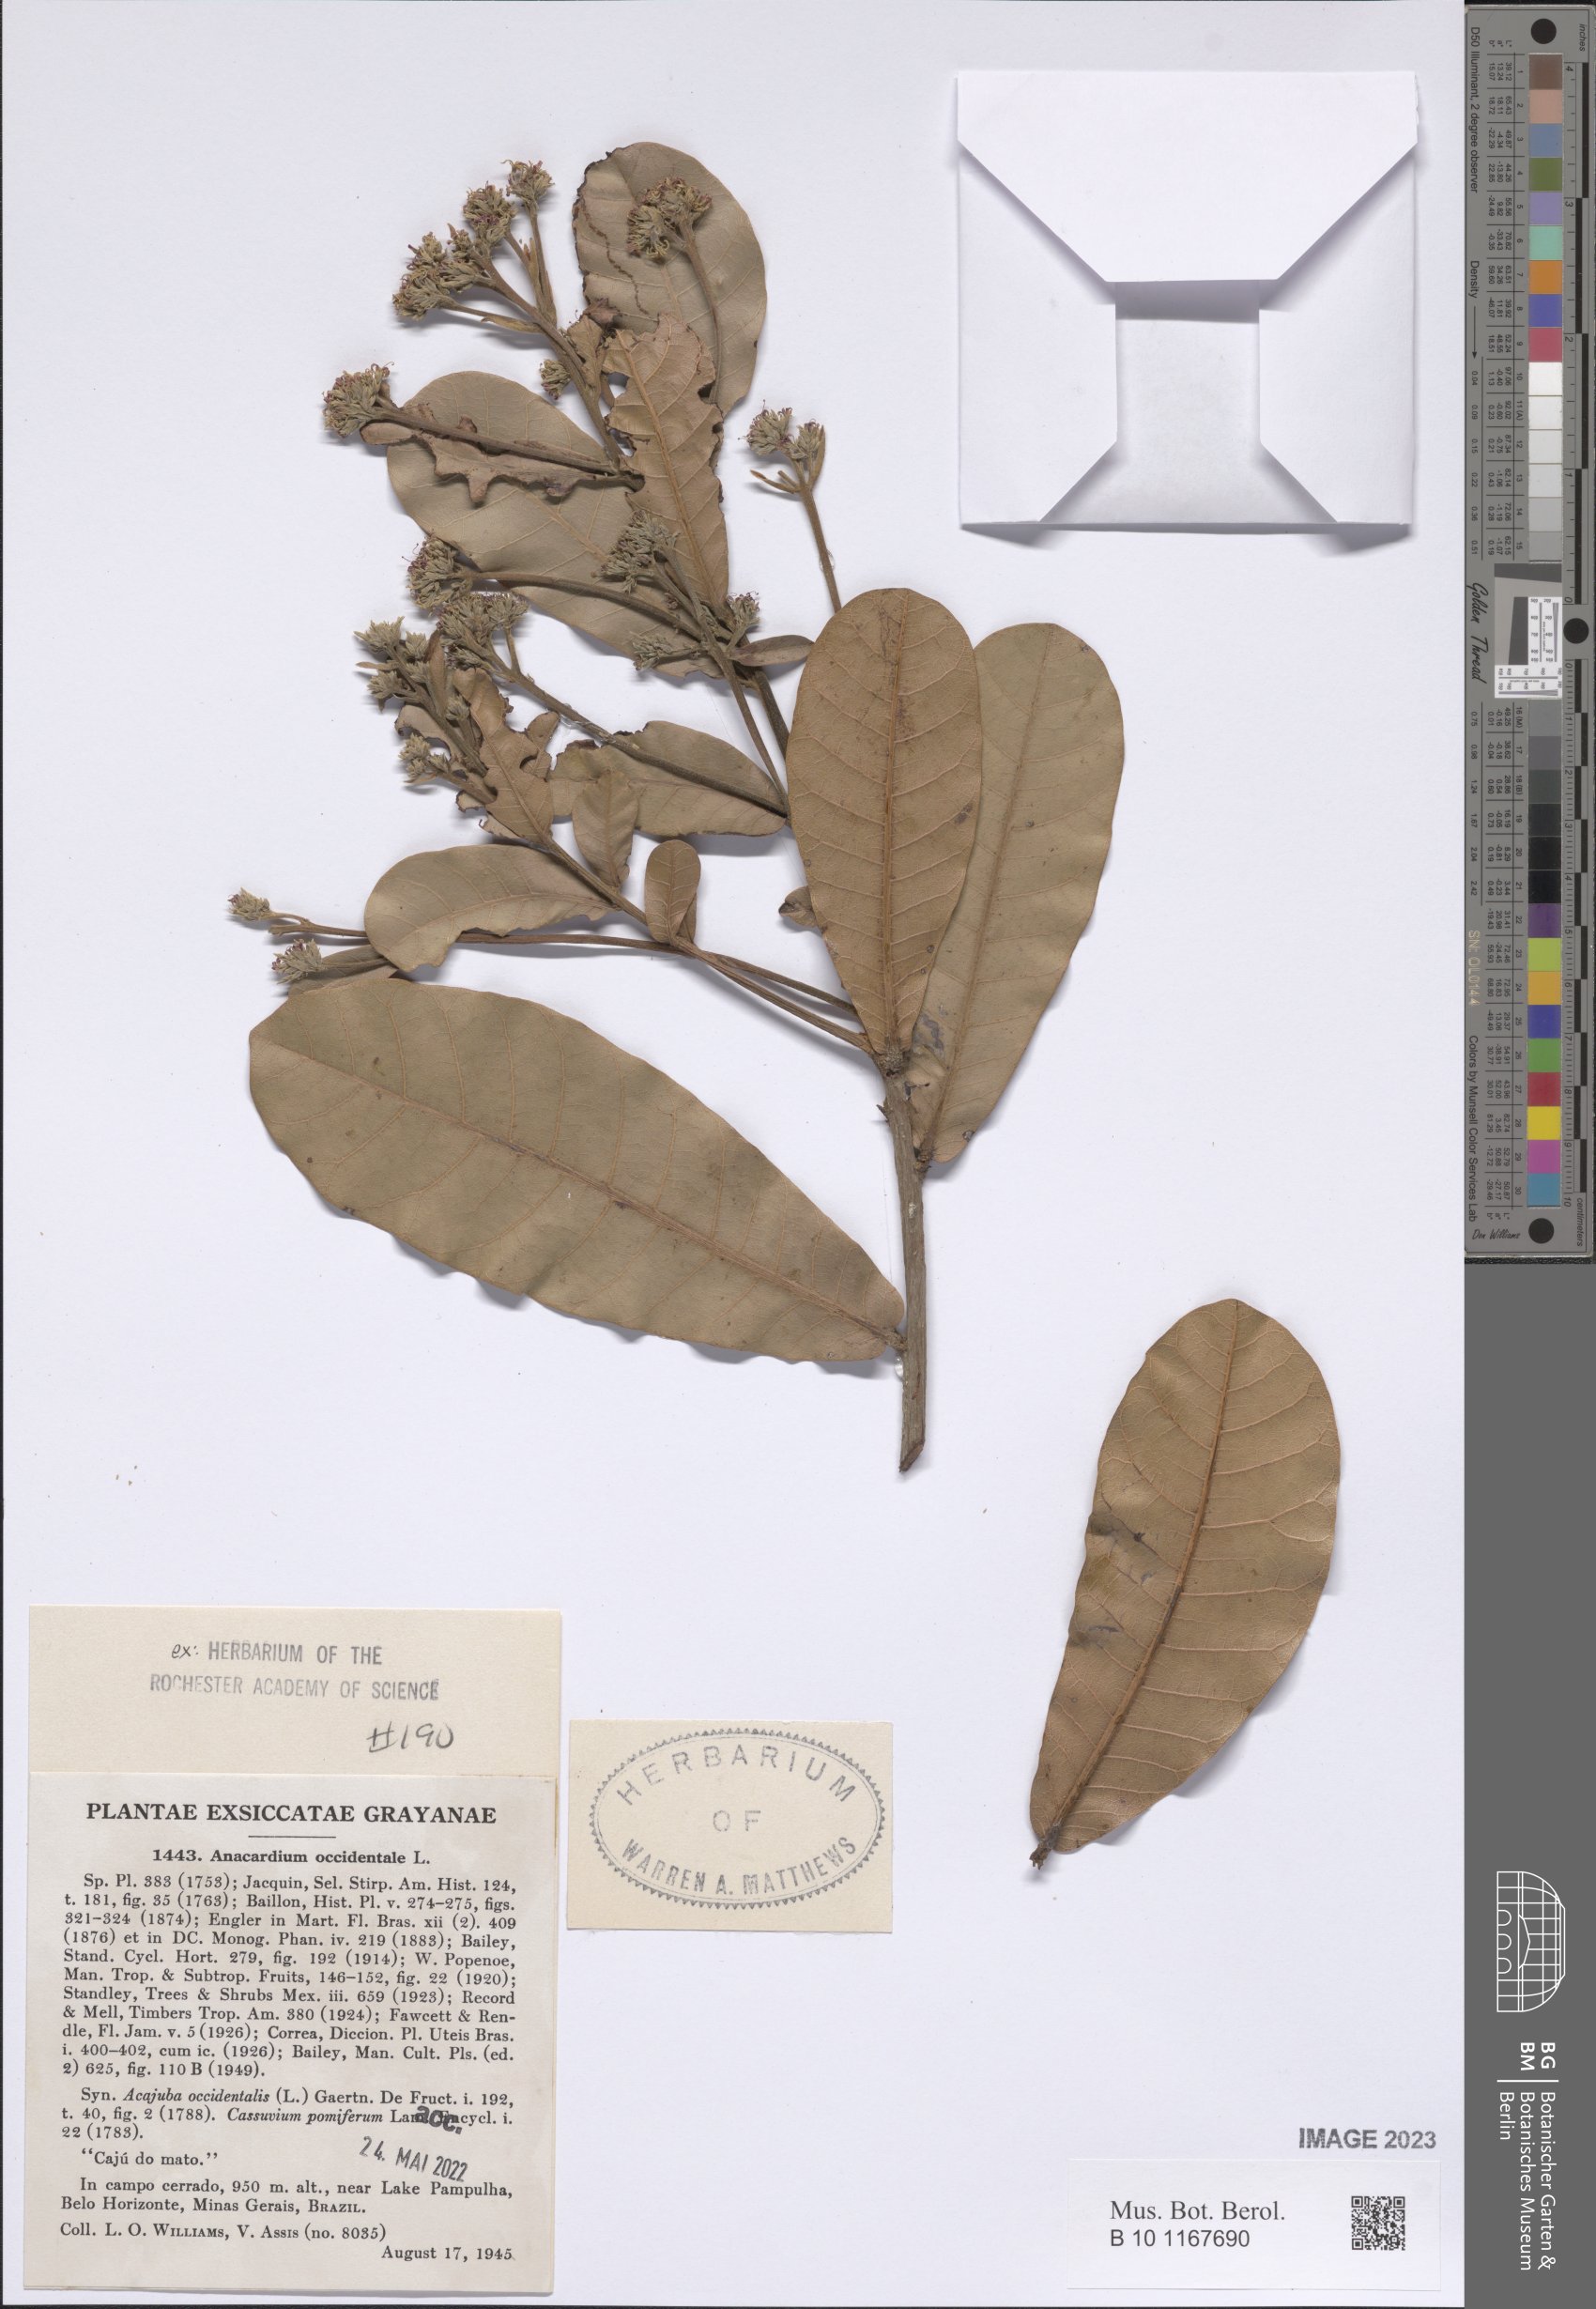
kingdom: Plantae
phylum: Tracheophyta
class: Magnoliopsida
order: Sapindales
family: Anacardiaceae
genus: Anacardium
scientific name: Anacardium occidentale
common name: Cashew
